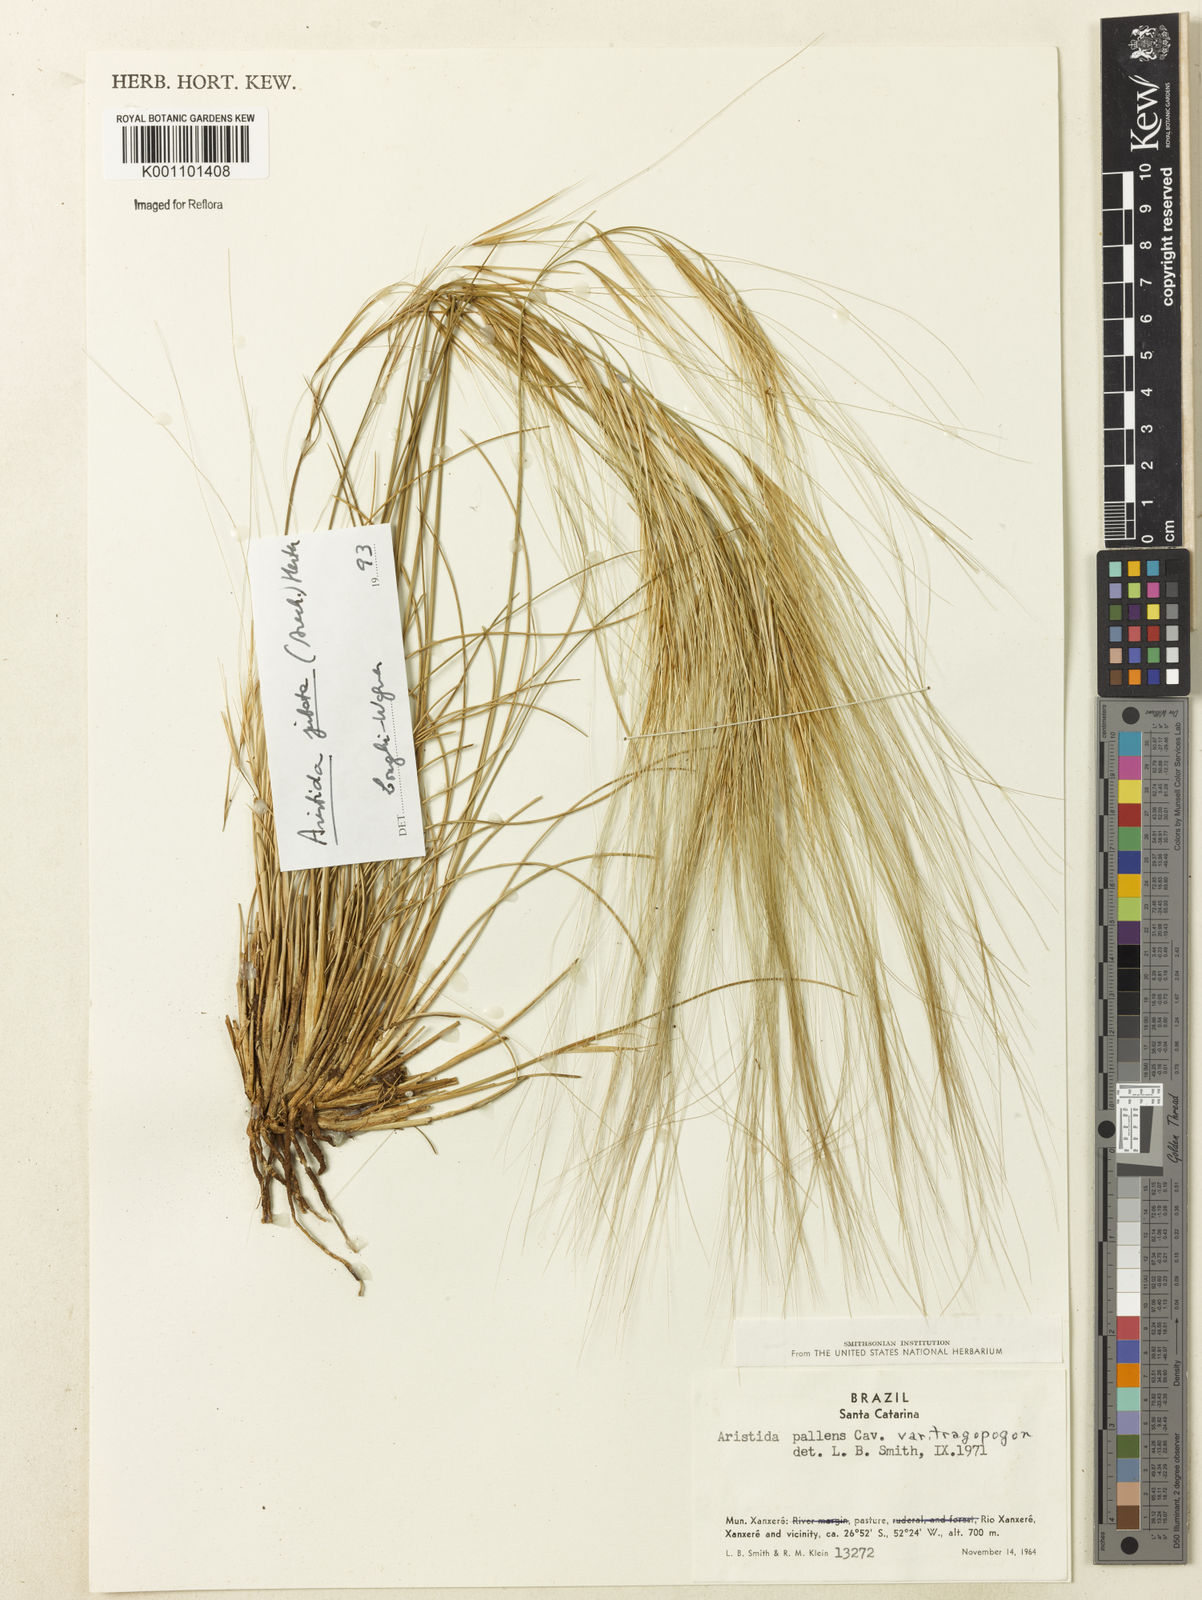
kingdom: Plantae
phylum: Tracheophyta
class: Liliopsida
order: Poales
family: Poaceae
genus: Aristida
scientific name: Aristida jubata
